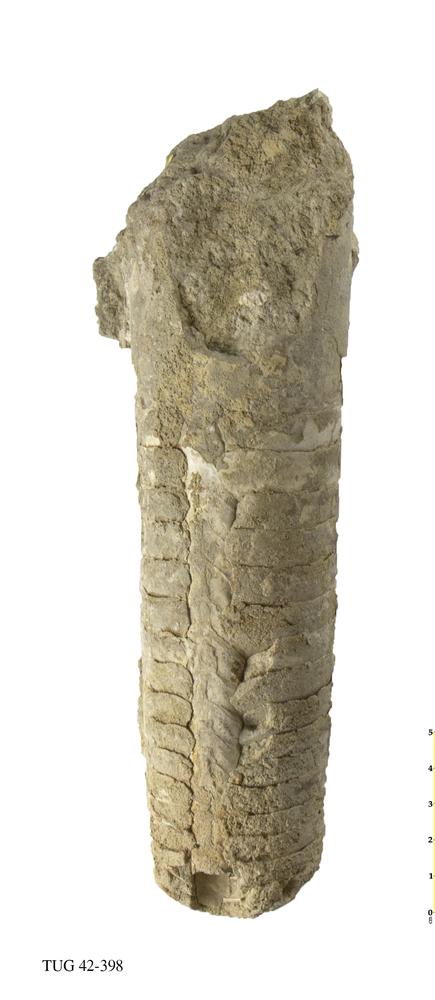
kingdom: Animalia
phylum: Mollusca
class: Cephalopoda
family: Endoceratidae
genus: Proterovaginoceras
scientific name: Proterovaginoceras Endoceras incognitum
